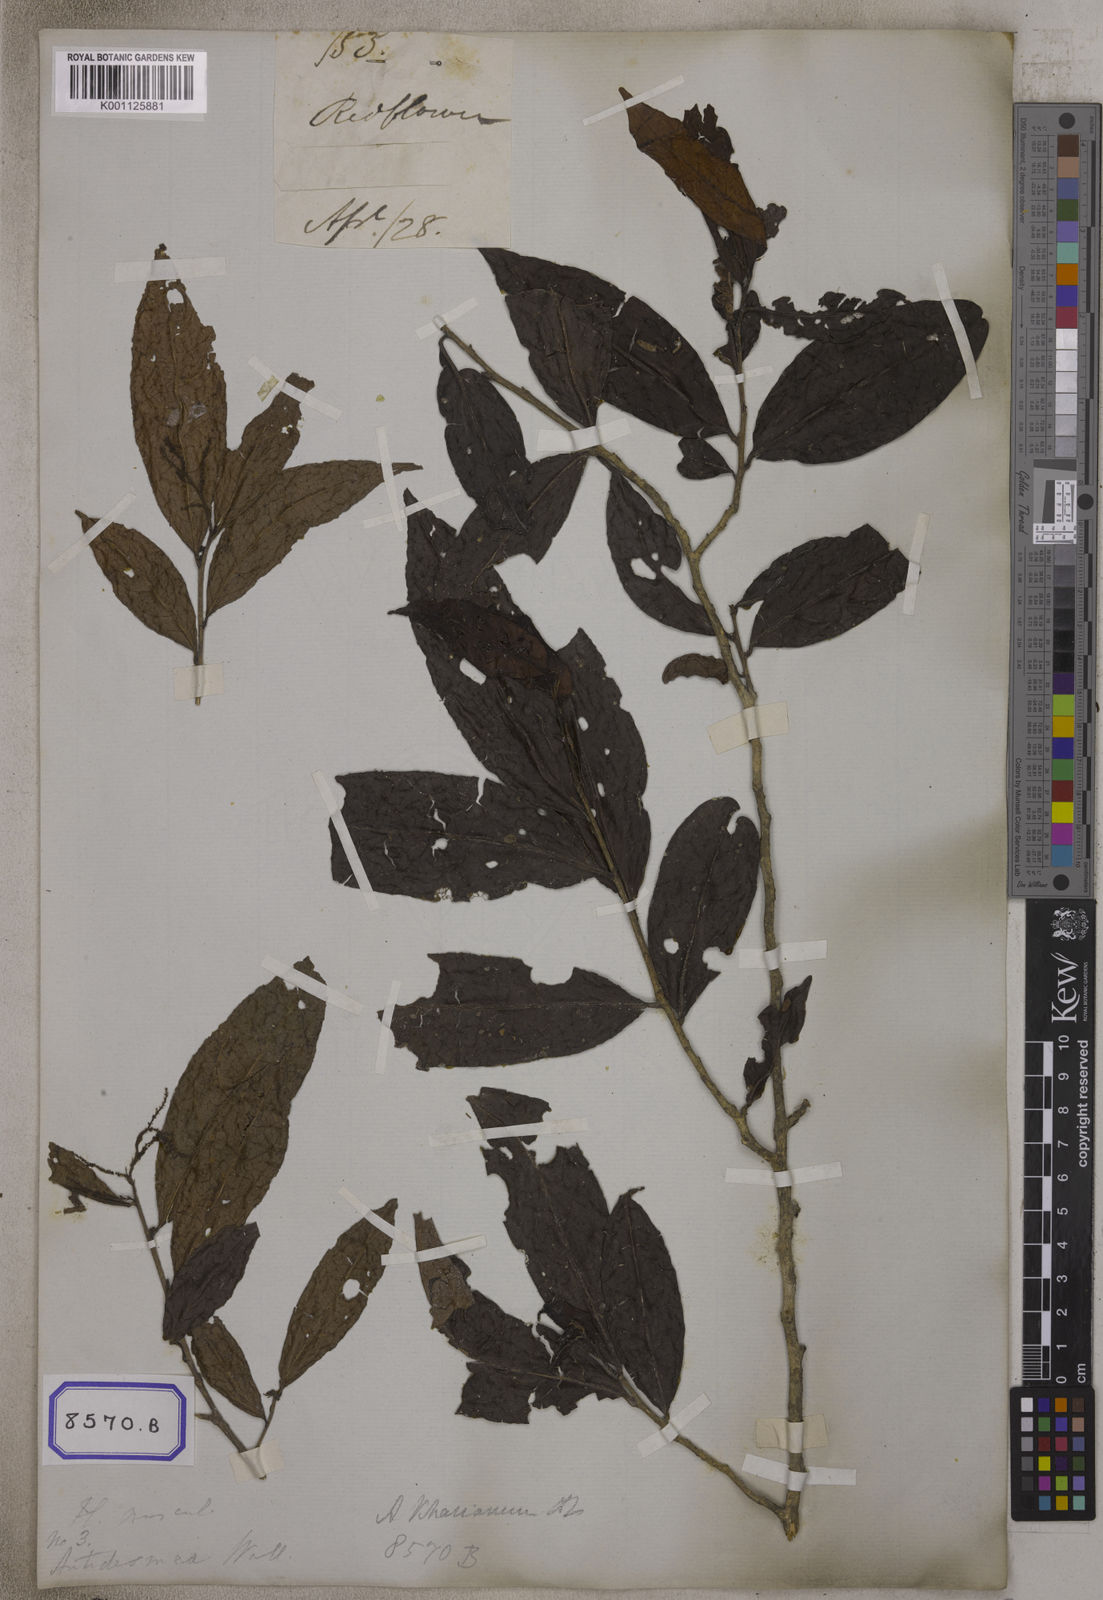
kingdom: Plantae
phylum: Tracheophyta
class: Magnoliopsida
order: Malpighiales
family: Phyllanthaceae
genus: Antidesma
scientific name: Antidesma
